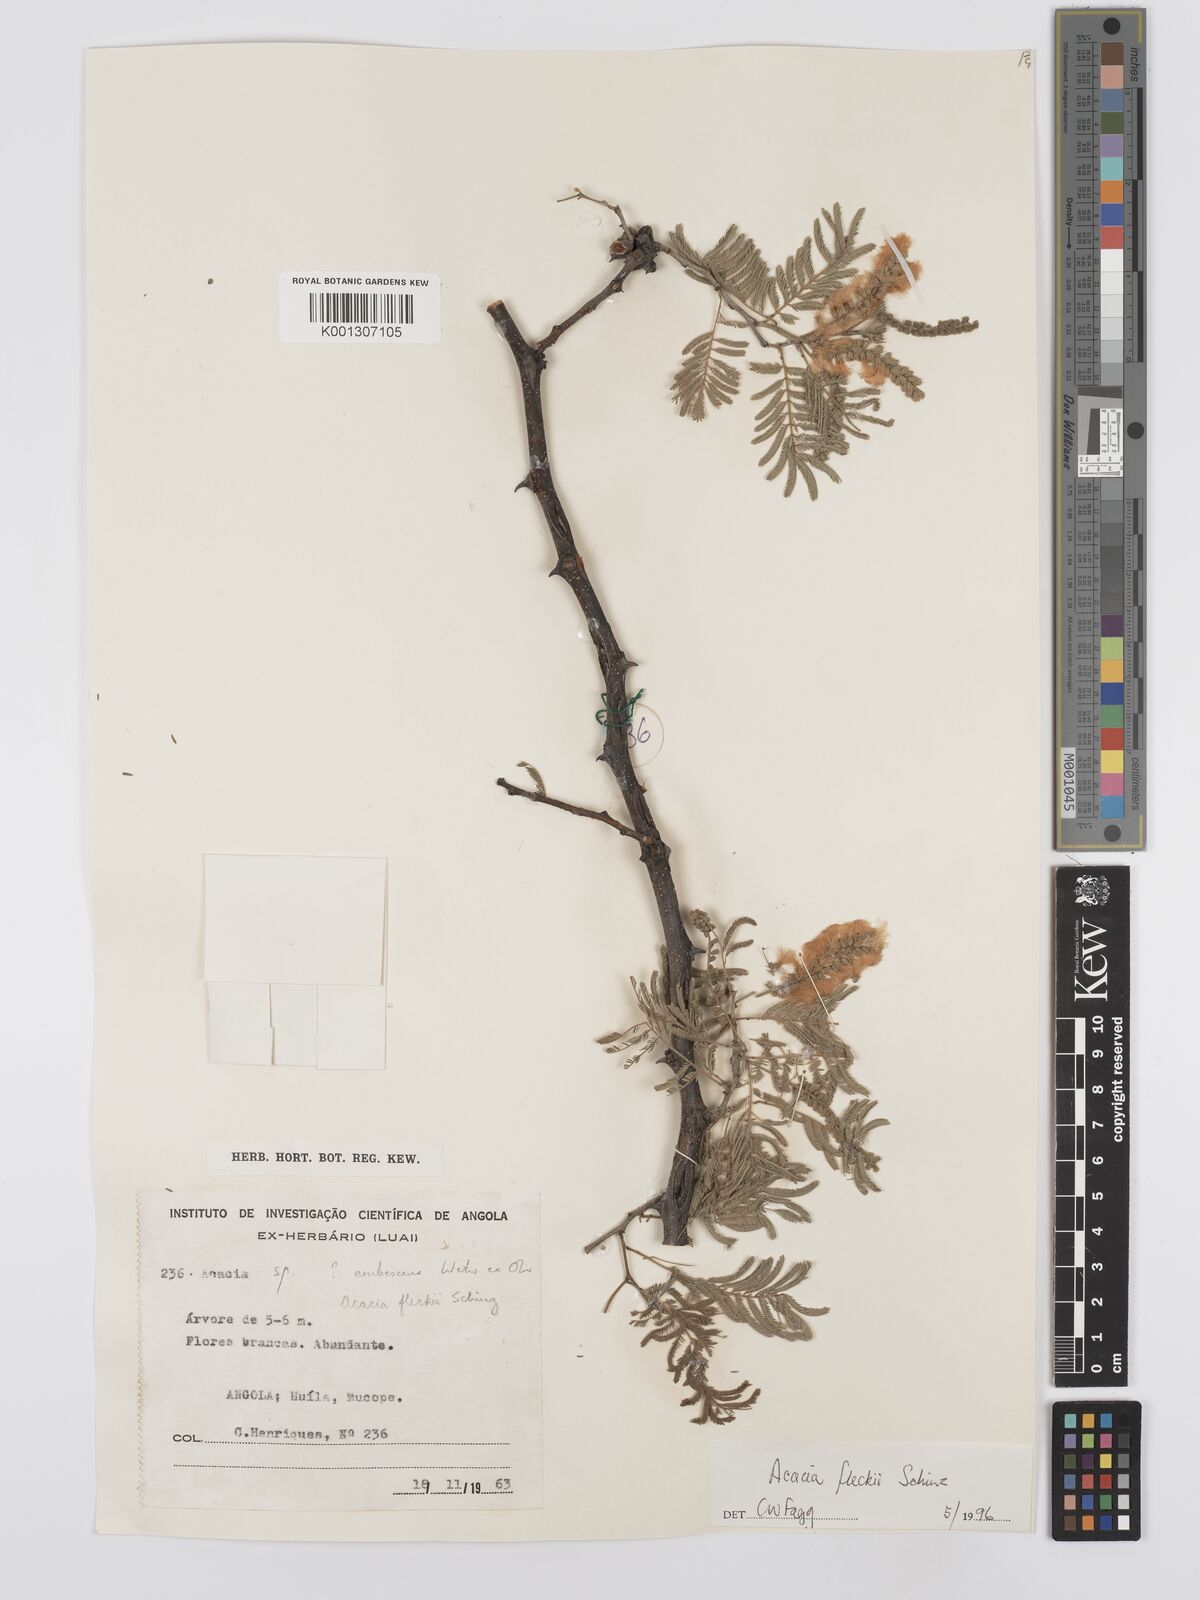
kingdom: Plantae
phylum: Tracheophyta
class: Magnoliopsida
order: Fabales
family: Fabaceae
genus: Senegalia
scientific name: Senegalia fleckii
